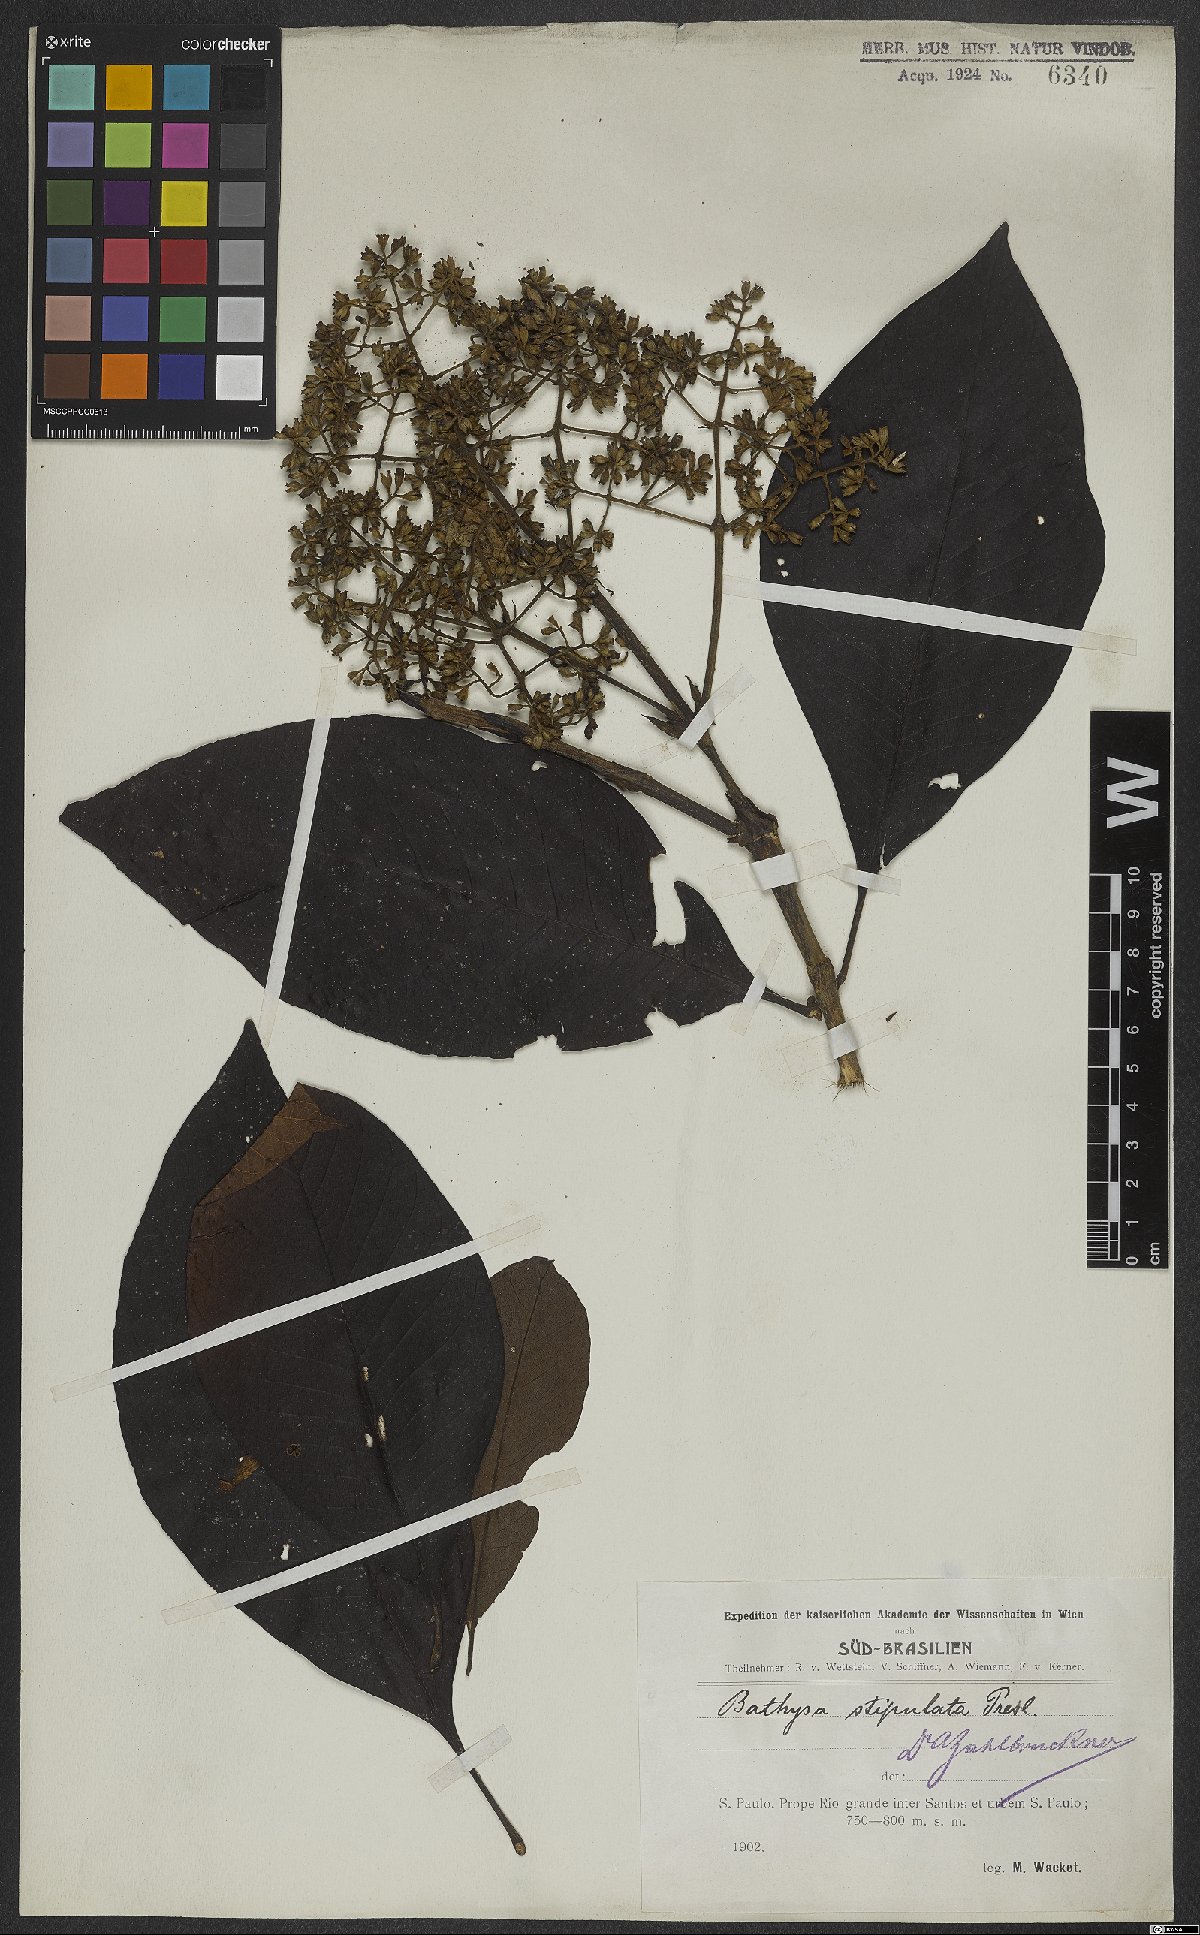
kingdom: Plantae
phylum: Tracheophyta
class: Magnoliopsida
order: Gentianales
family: Rubiaceae
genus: Bathysa
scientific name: Bathysa stipulata
